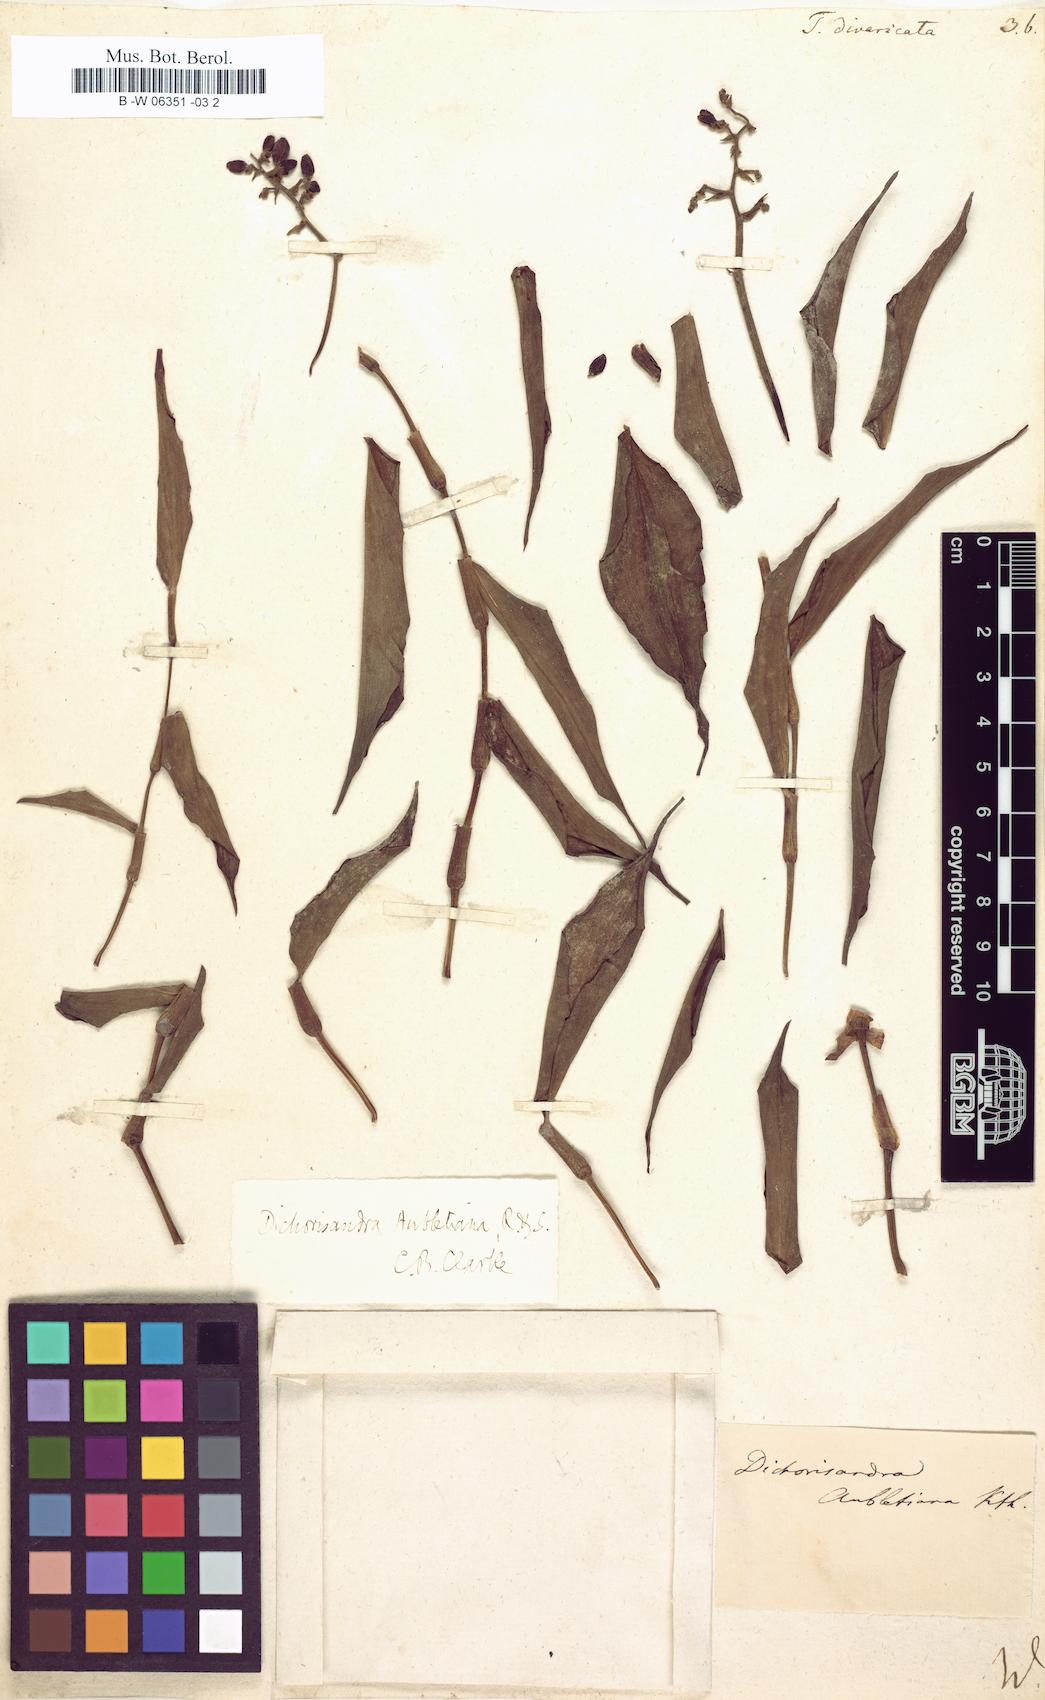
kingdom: Plantae
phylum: Tracheophyta
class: Liliopsida
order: Commelinales
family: Commelinaceae
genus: Dichorisandra
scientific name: Dichorisandra hexandra
